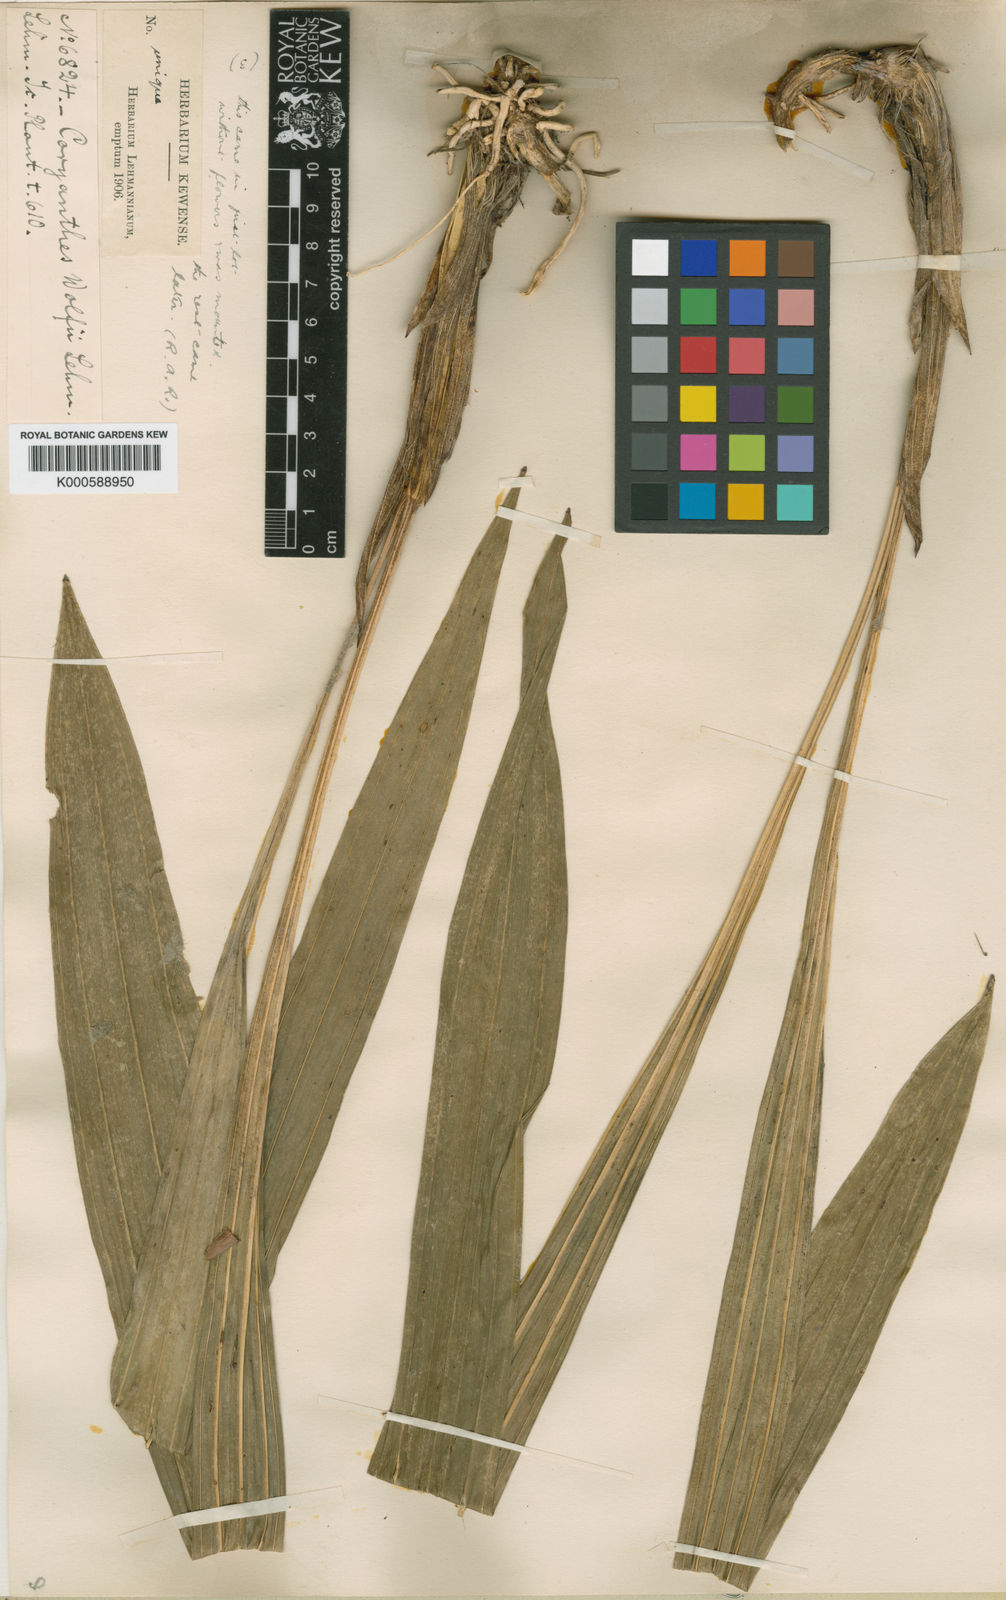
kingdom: Plantae
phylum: Tracheophyta
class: Liliopsida
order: Asparagales
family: Orchidaceae
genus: Coryanthes
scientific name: Coryanthes elegantium
